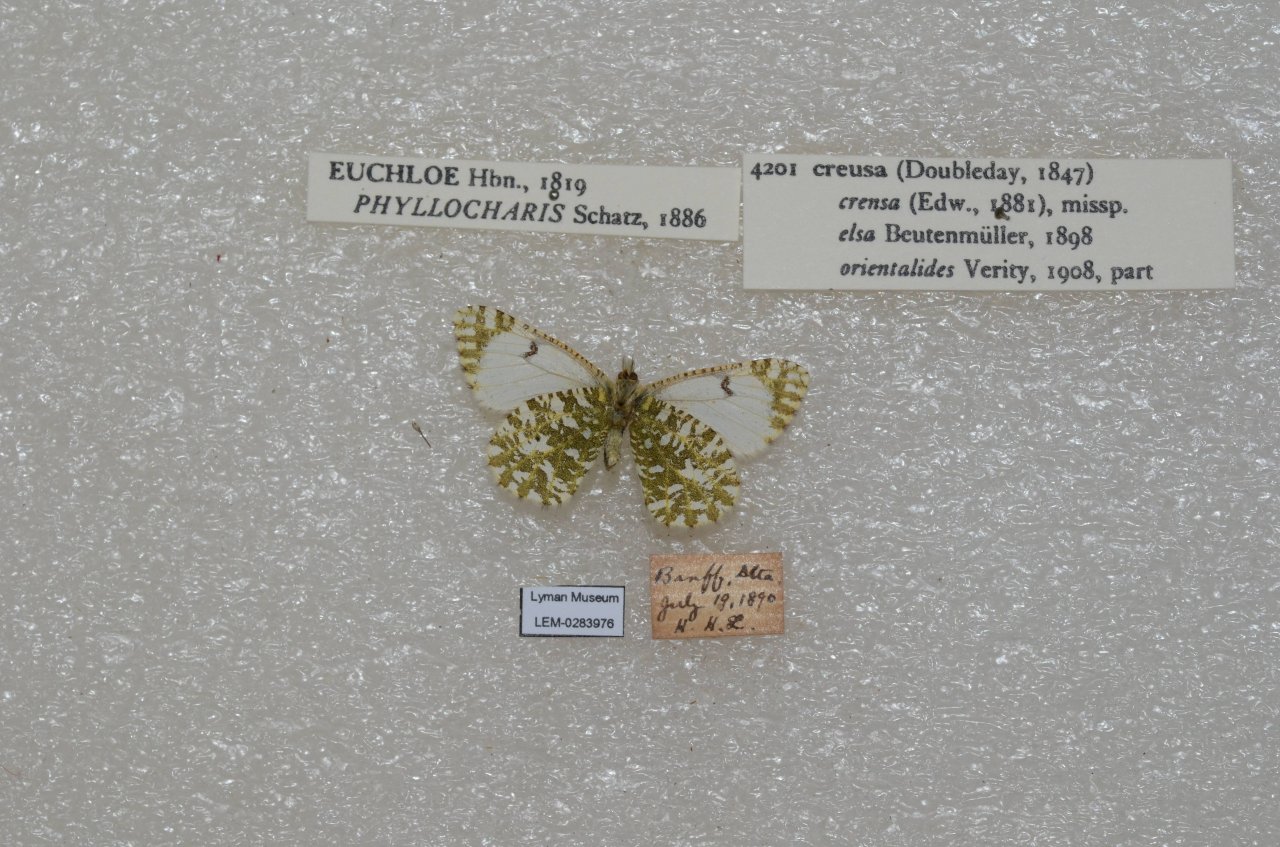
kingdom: Animalia
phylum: Arthropoda
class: Insecta
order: Lepidoptera
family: Pieridae
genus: Euchloe
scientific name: Euchloe creusa
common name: Northern Marble
